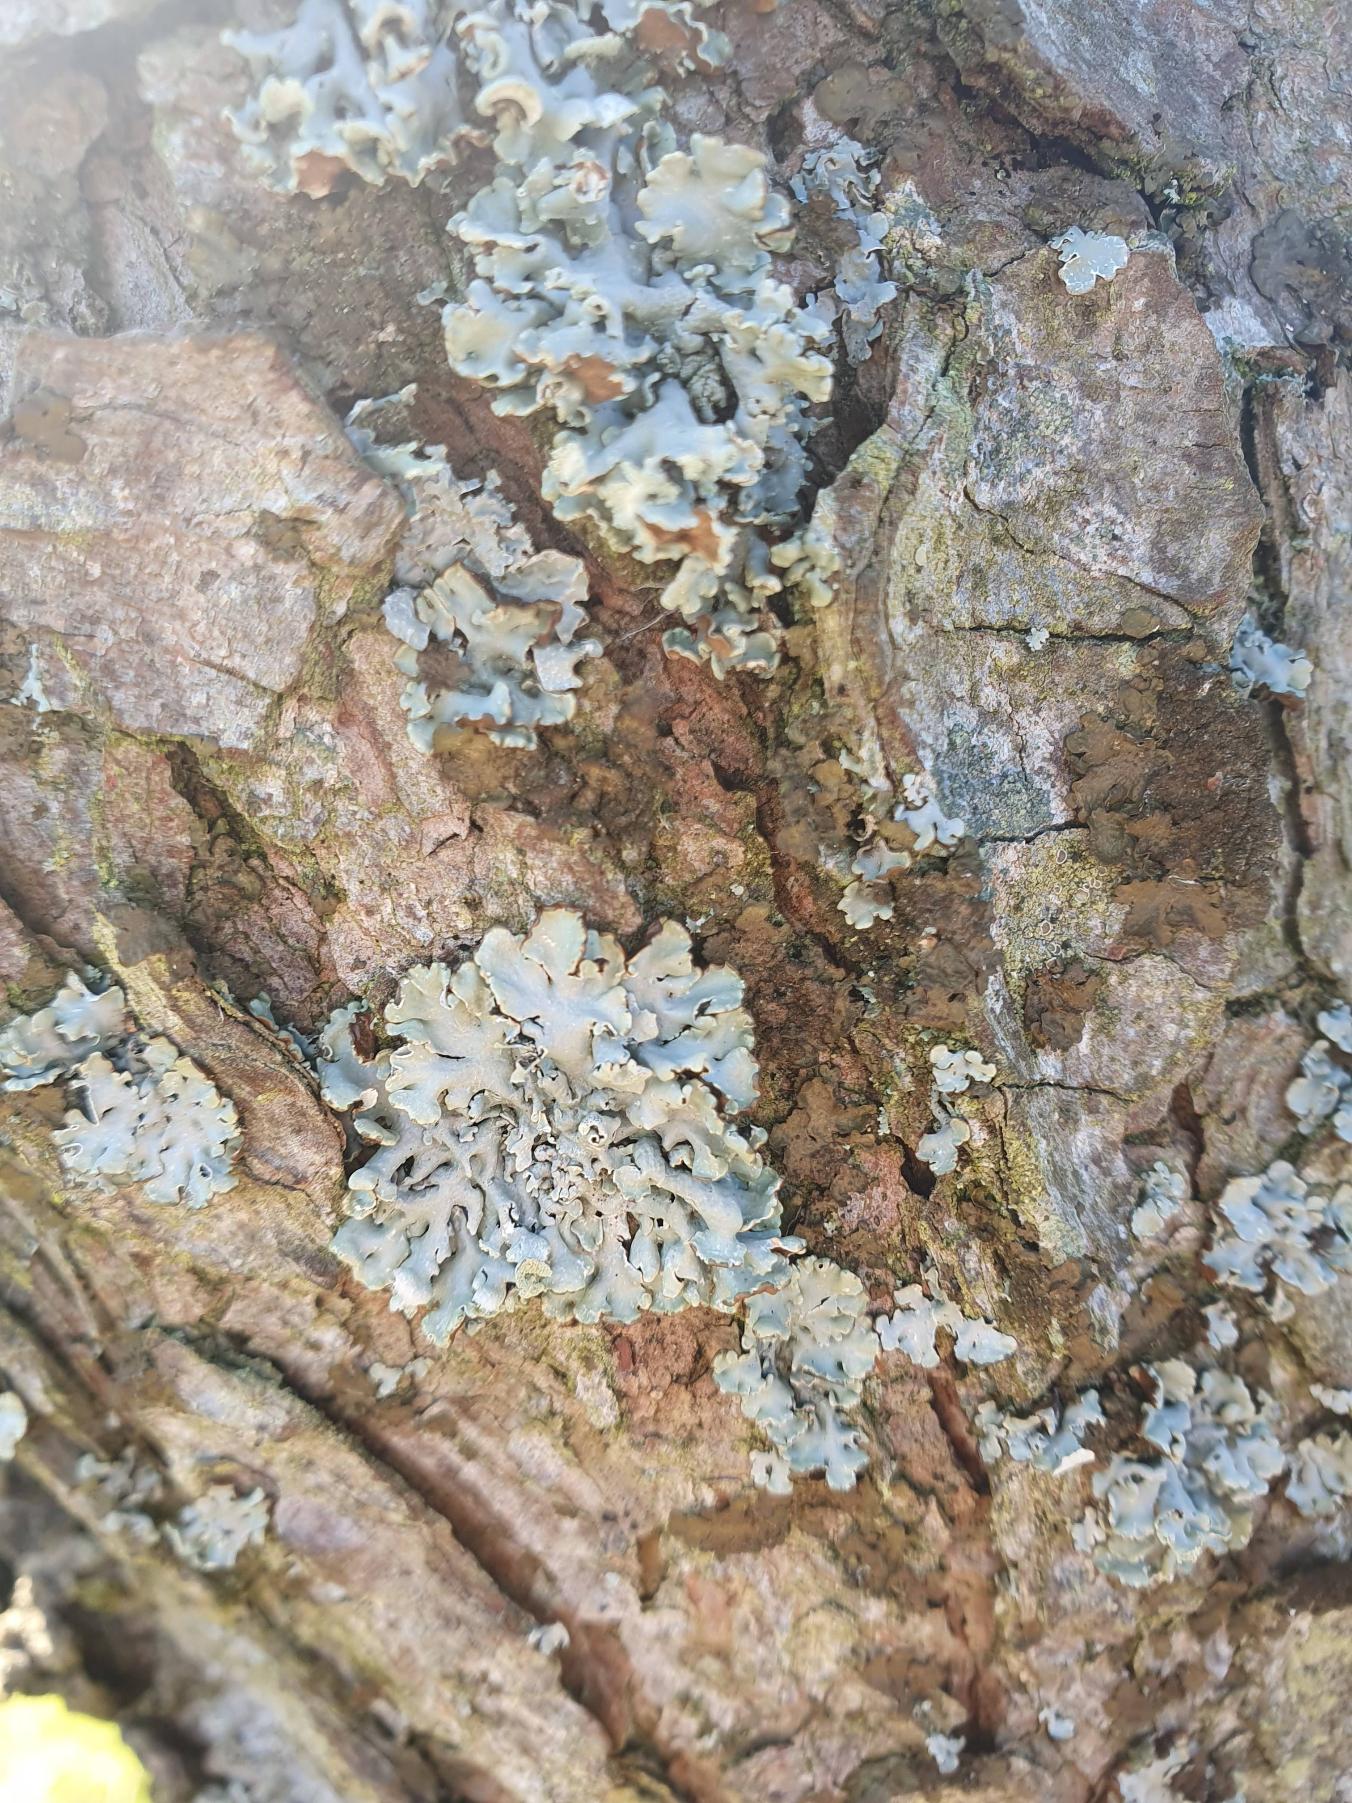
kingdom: Fungi
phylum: Ascomycota
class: Lecanoromycetes
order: Lecanorales
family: Parmeliaceae
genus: Hypogymnia
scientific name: Hypogymnia physodes
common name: Almindelig kvistlav
